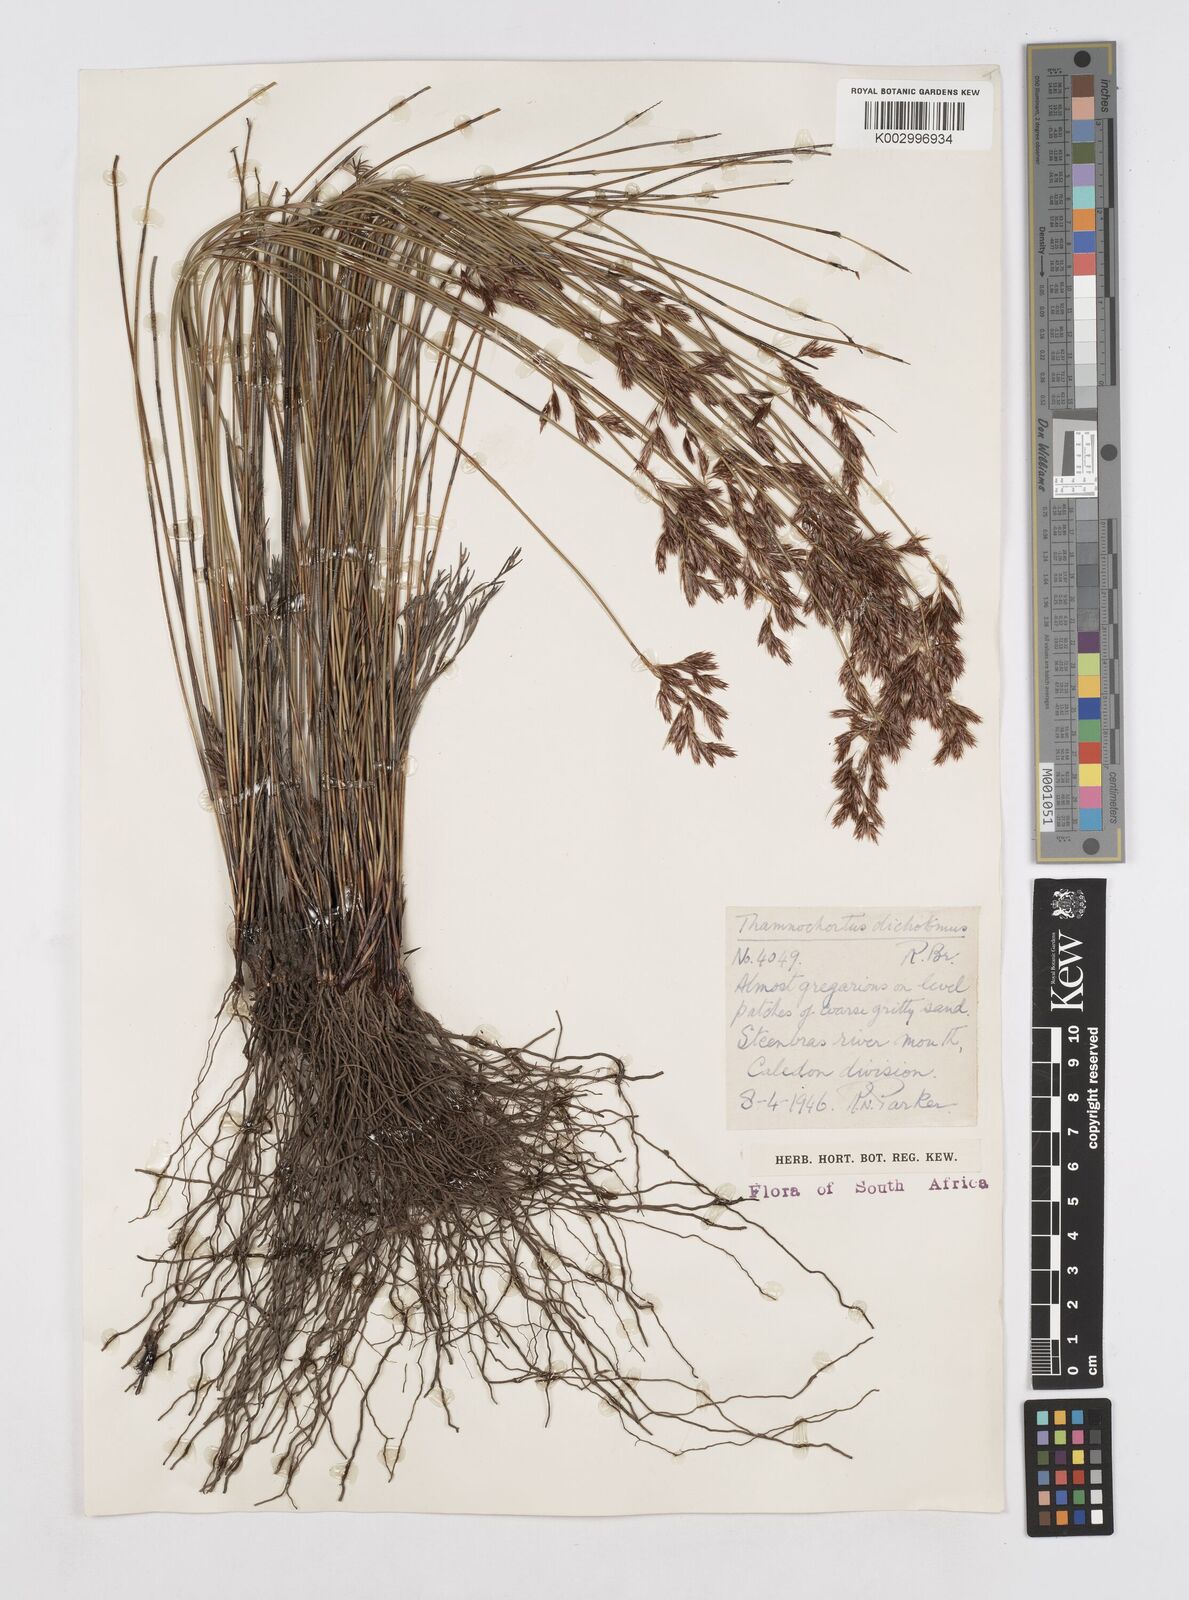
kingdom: Plantae
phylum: Tracheophyta
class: Liliopsida
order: Poales
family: Restionaceae
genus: Thamnochortus
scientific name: Thamnochortus lucens
